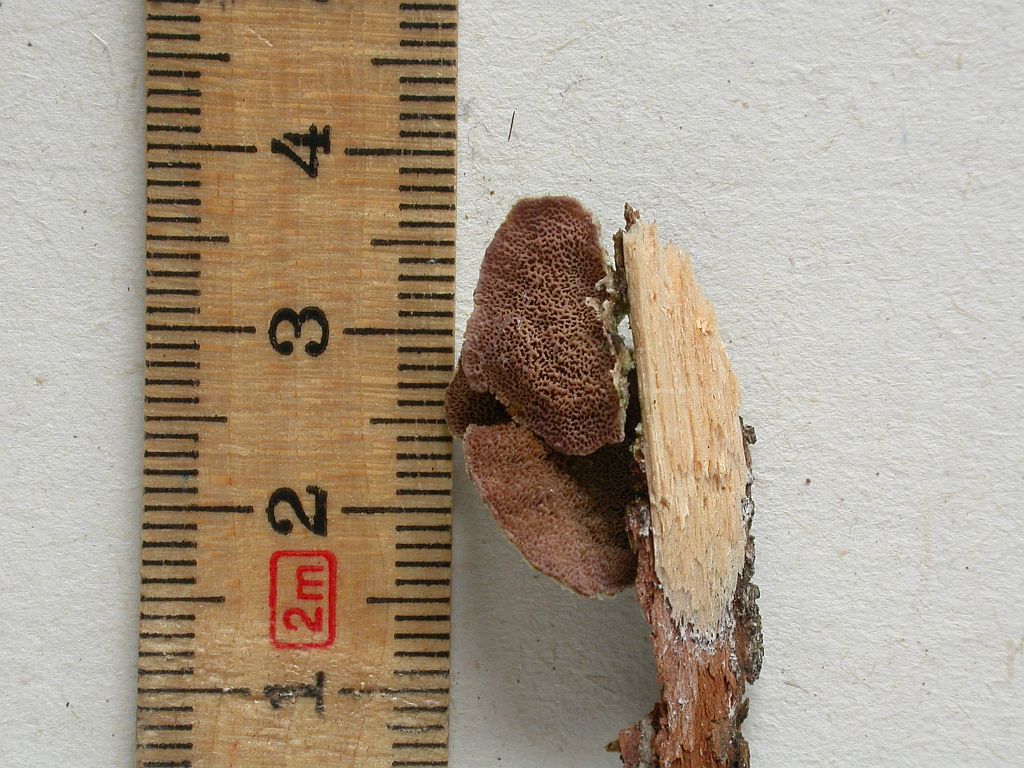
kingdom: Fungi
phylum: Basidiomycota
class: Agaricomycetes
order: Hymenochaetales
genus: Trichaptum
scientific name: Trichaptum abietinum
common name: almindelig violporesvamp
